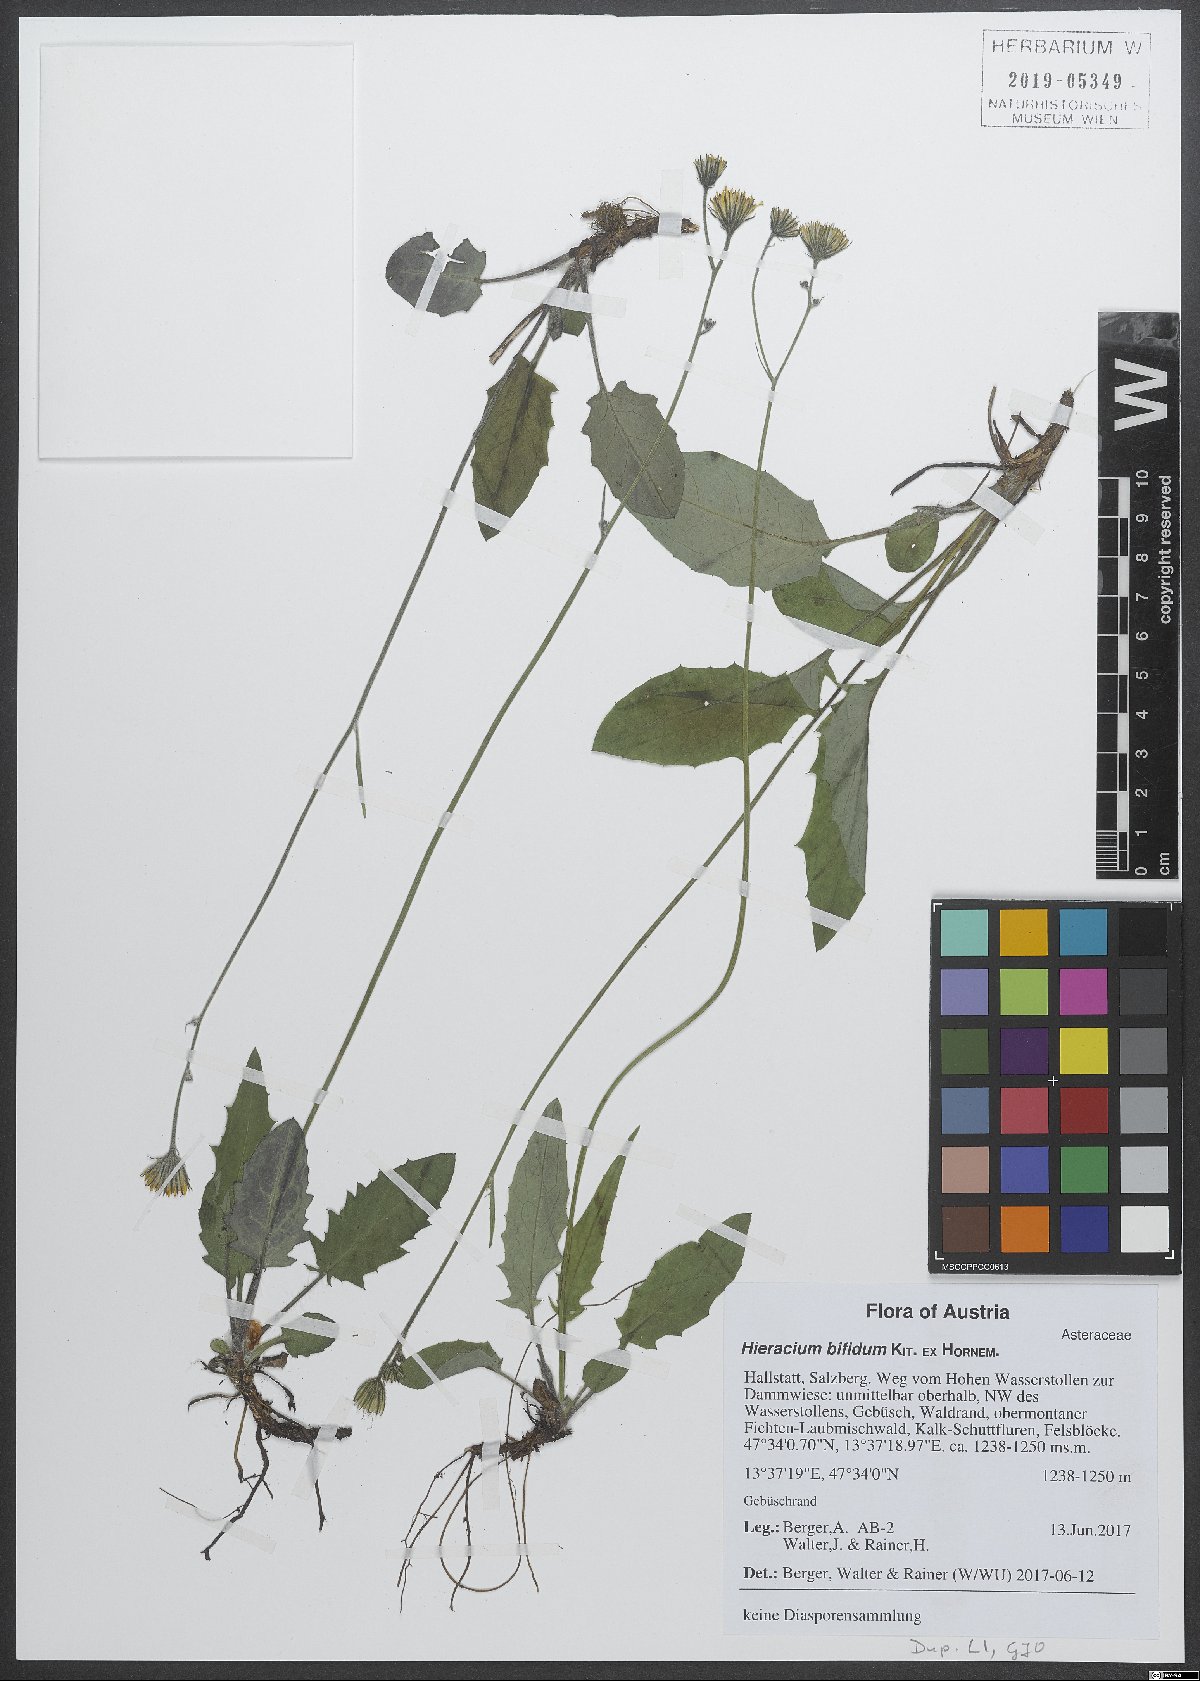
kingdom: Plantae
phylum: Tracheophyta
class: Magnoliopsida
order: Asterales
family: Asteraceae
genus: Hieracium
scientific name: Hieracium bifidum
